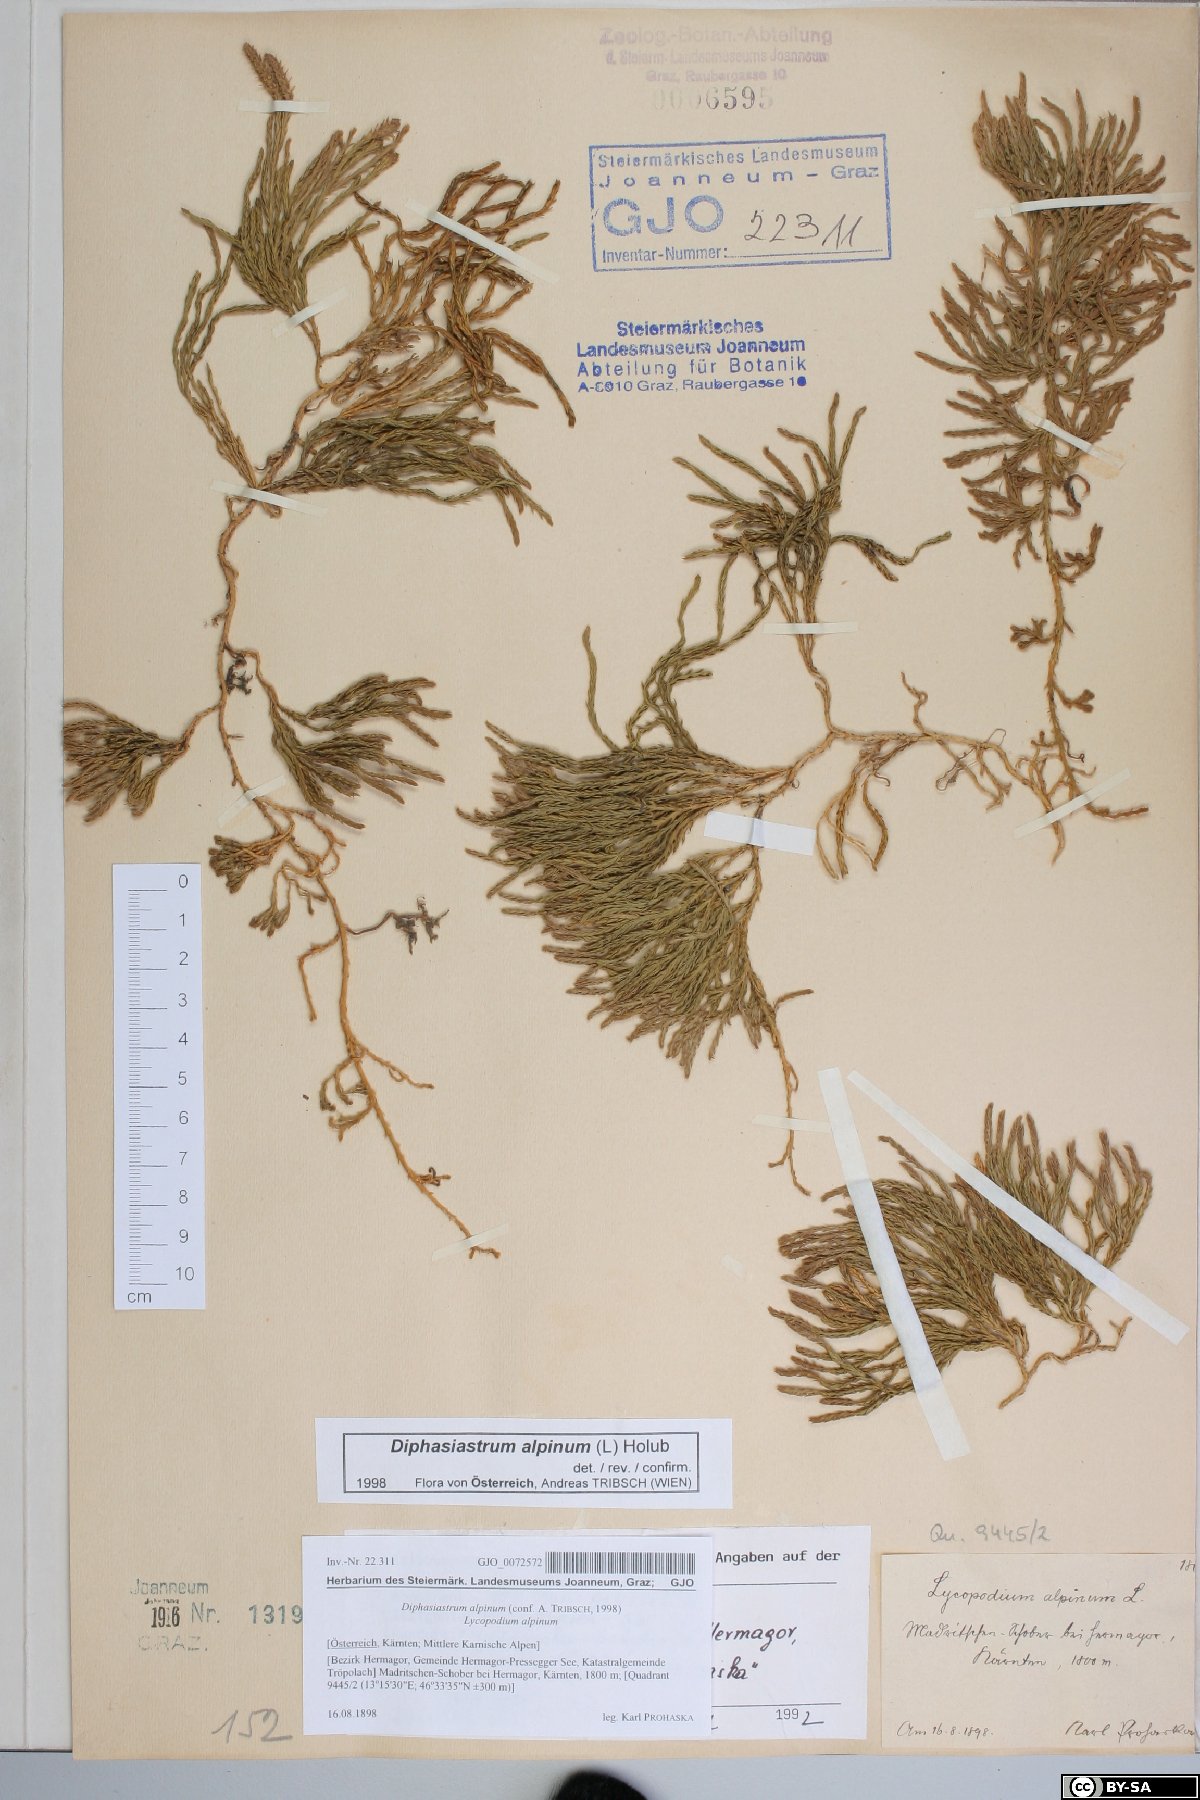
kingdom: Plantae
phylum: Tracheophyta
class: Lycopodiopsida
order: Lycopodiales
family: Lycopodiaceae
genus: Diphasiastrum
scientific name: Diphasiastrum alpinum
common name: Alpine clubmoss
